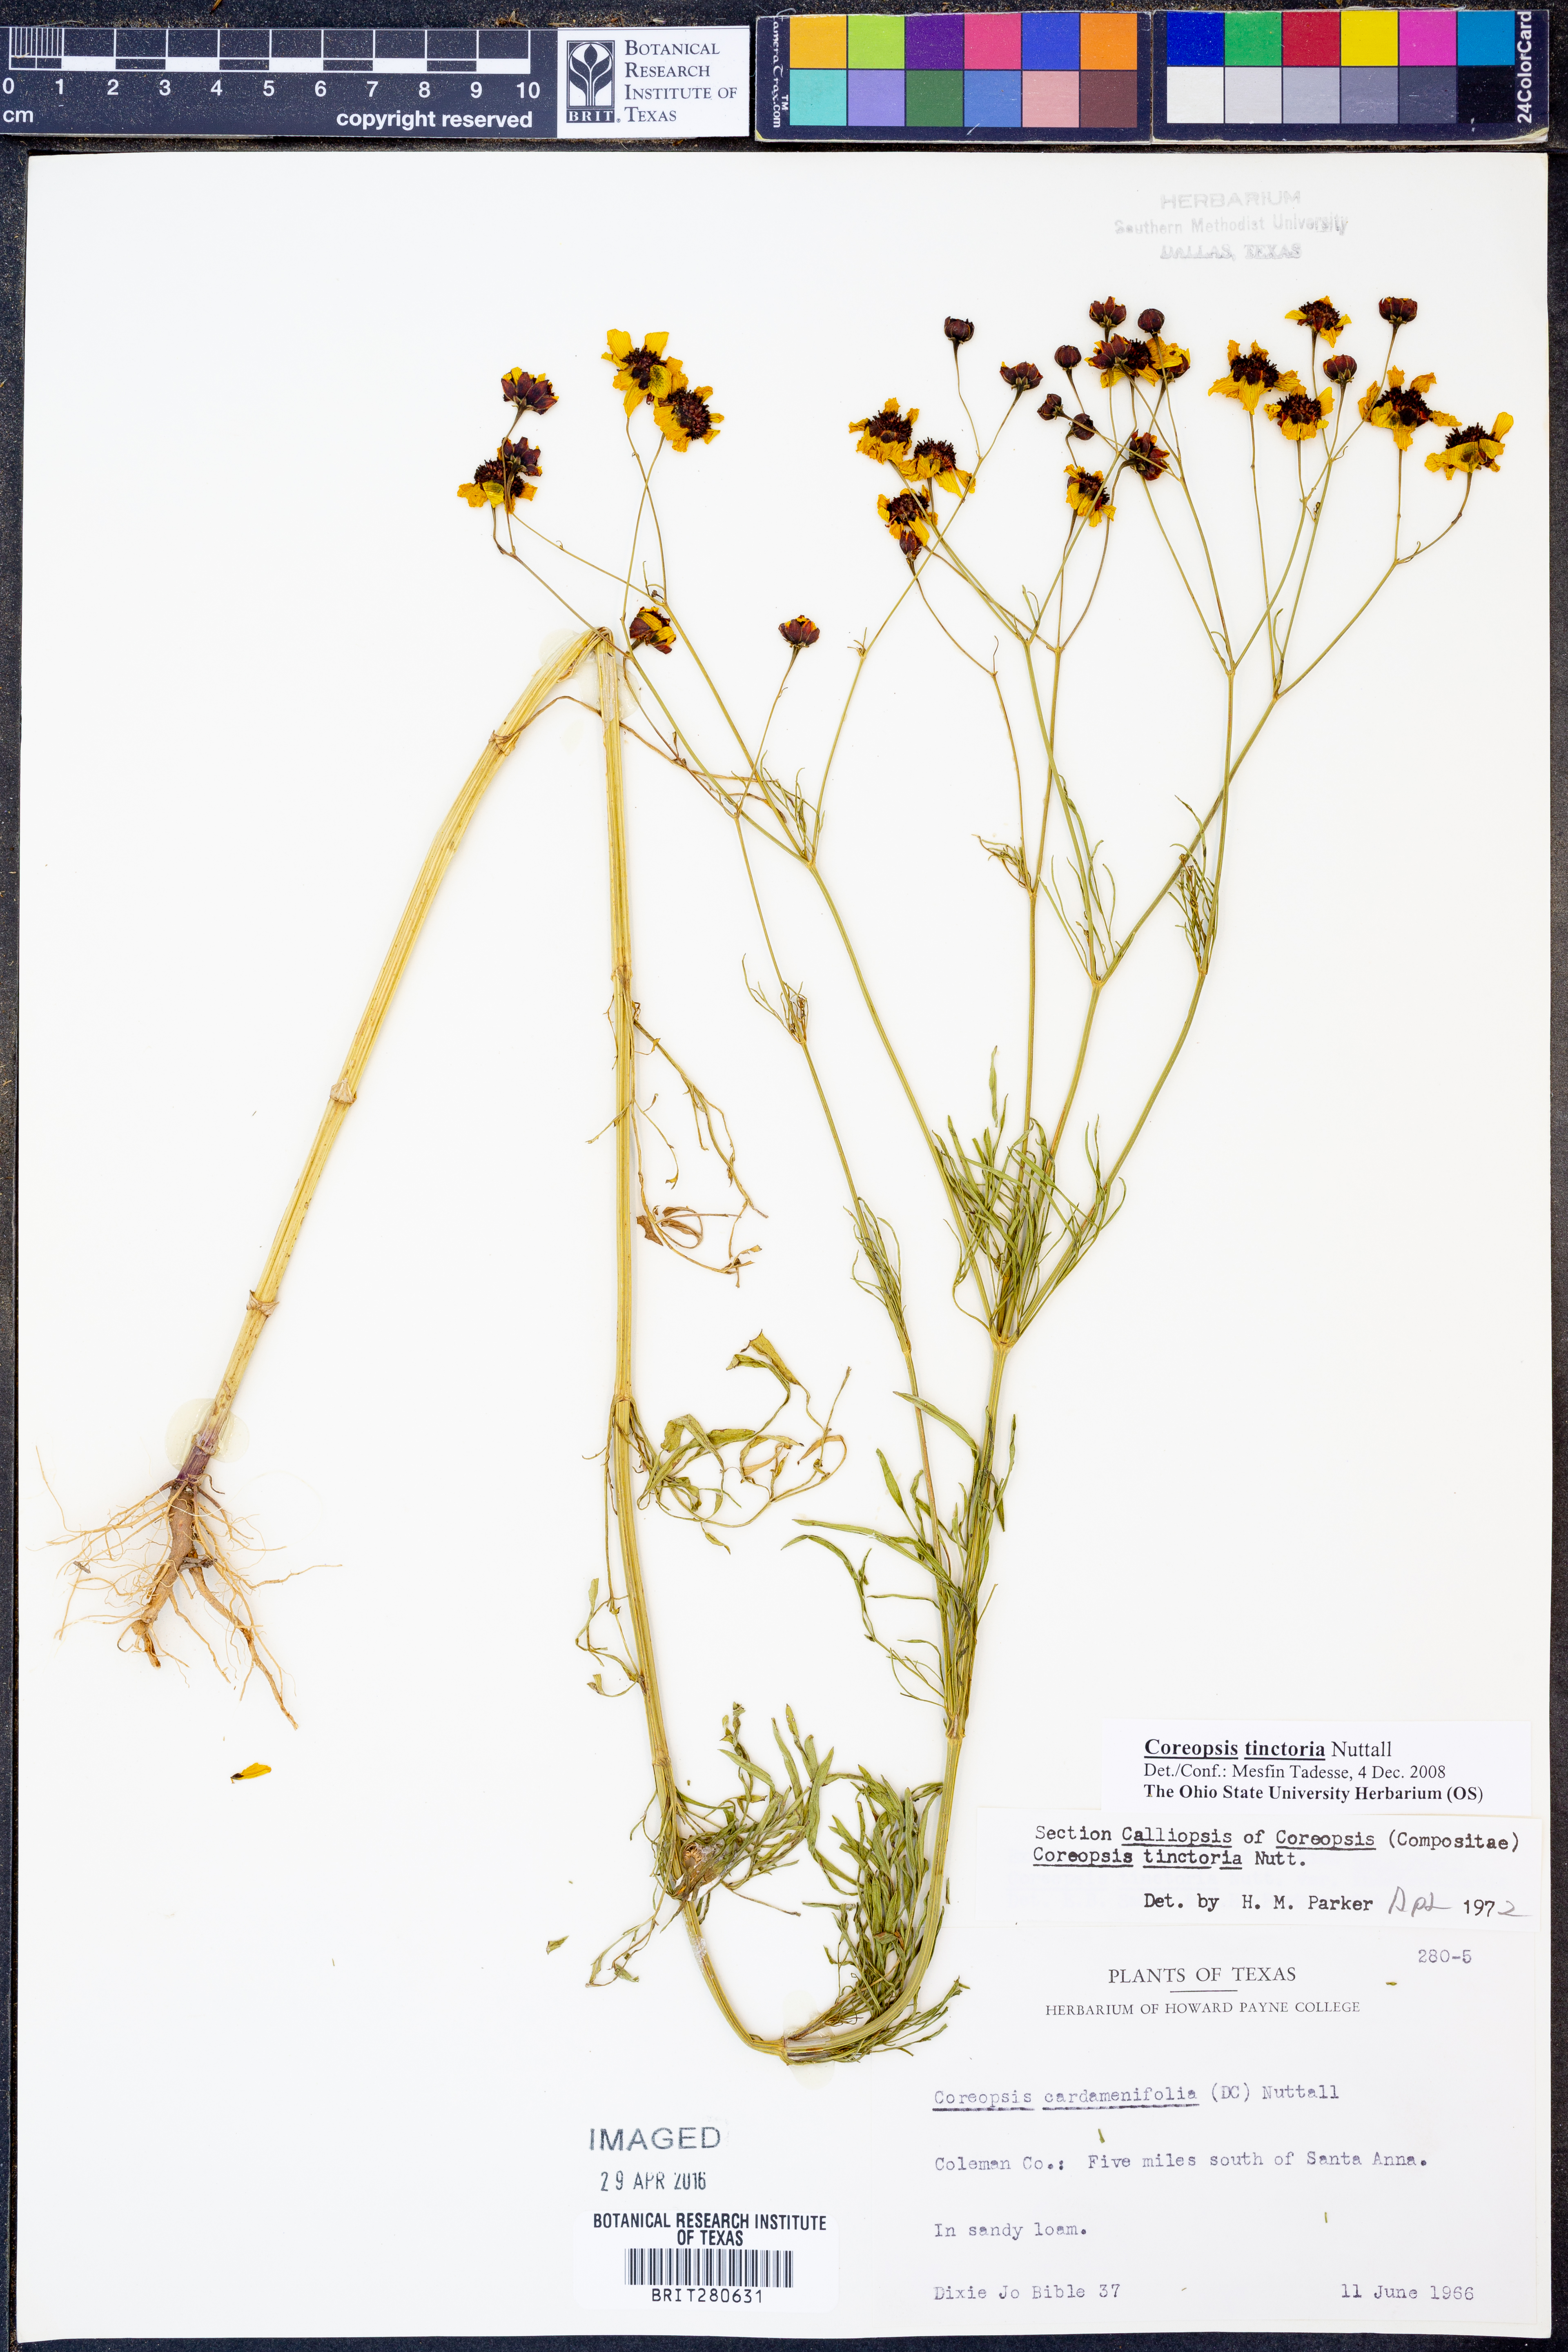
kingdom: Plantae
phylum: Tracheophyta
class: Magnoliopsida
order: Asterales
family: Asteraceae
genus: Coreopsis
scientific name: Coreopsis tinctoria
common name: Garden tickseed
